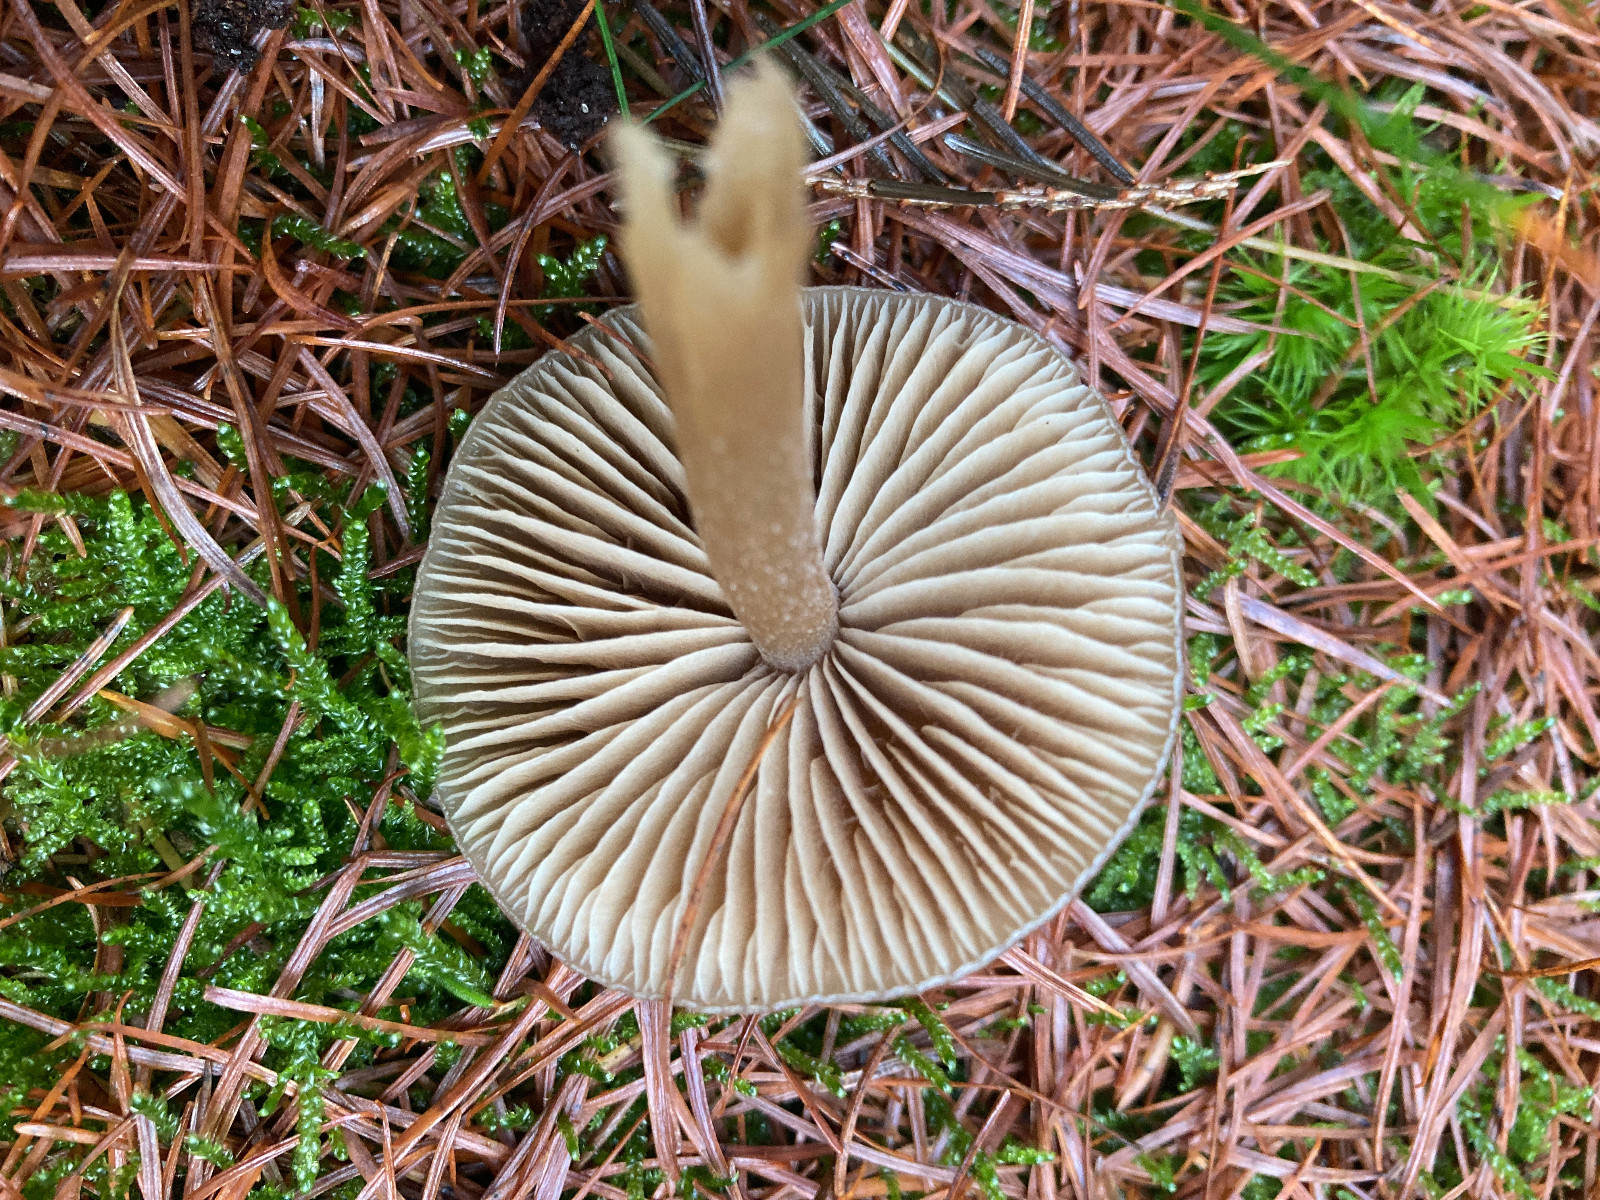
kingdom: Fungi
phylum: Basidiomycota
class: Agaricomycetes
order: Agaricales
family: Entolomataceae
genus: Entoloma
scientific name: Entoloma
